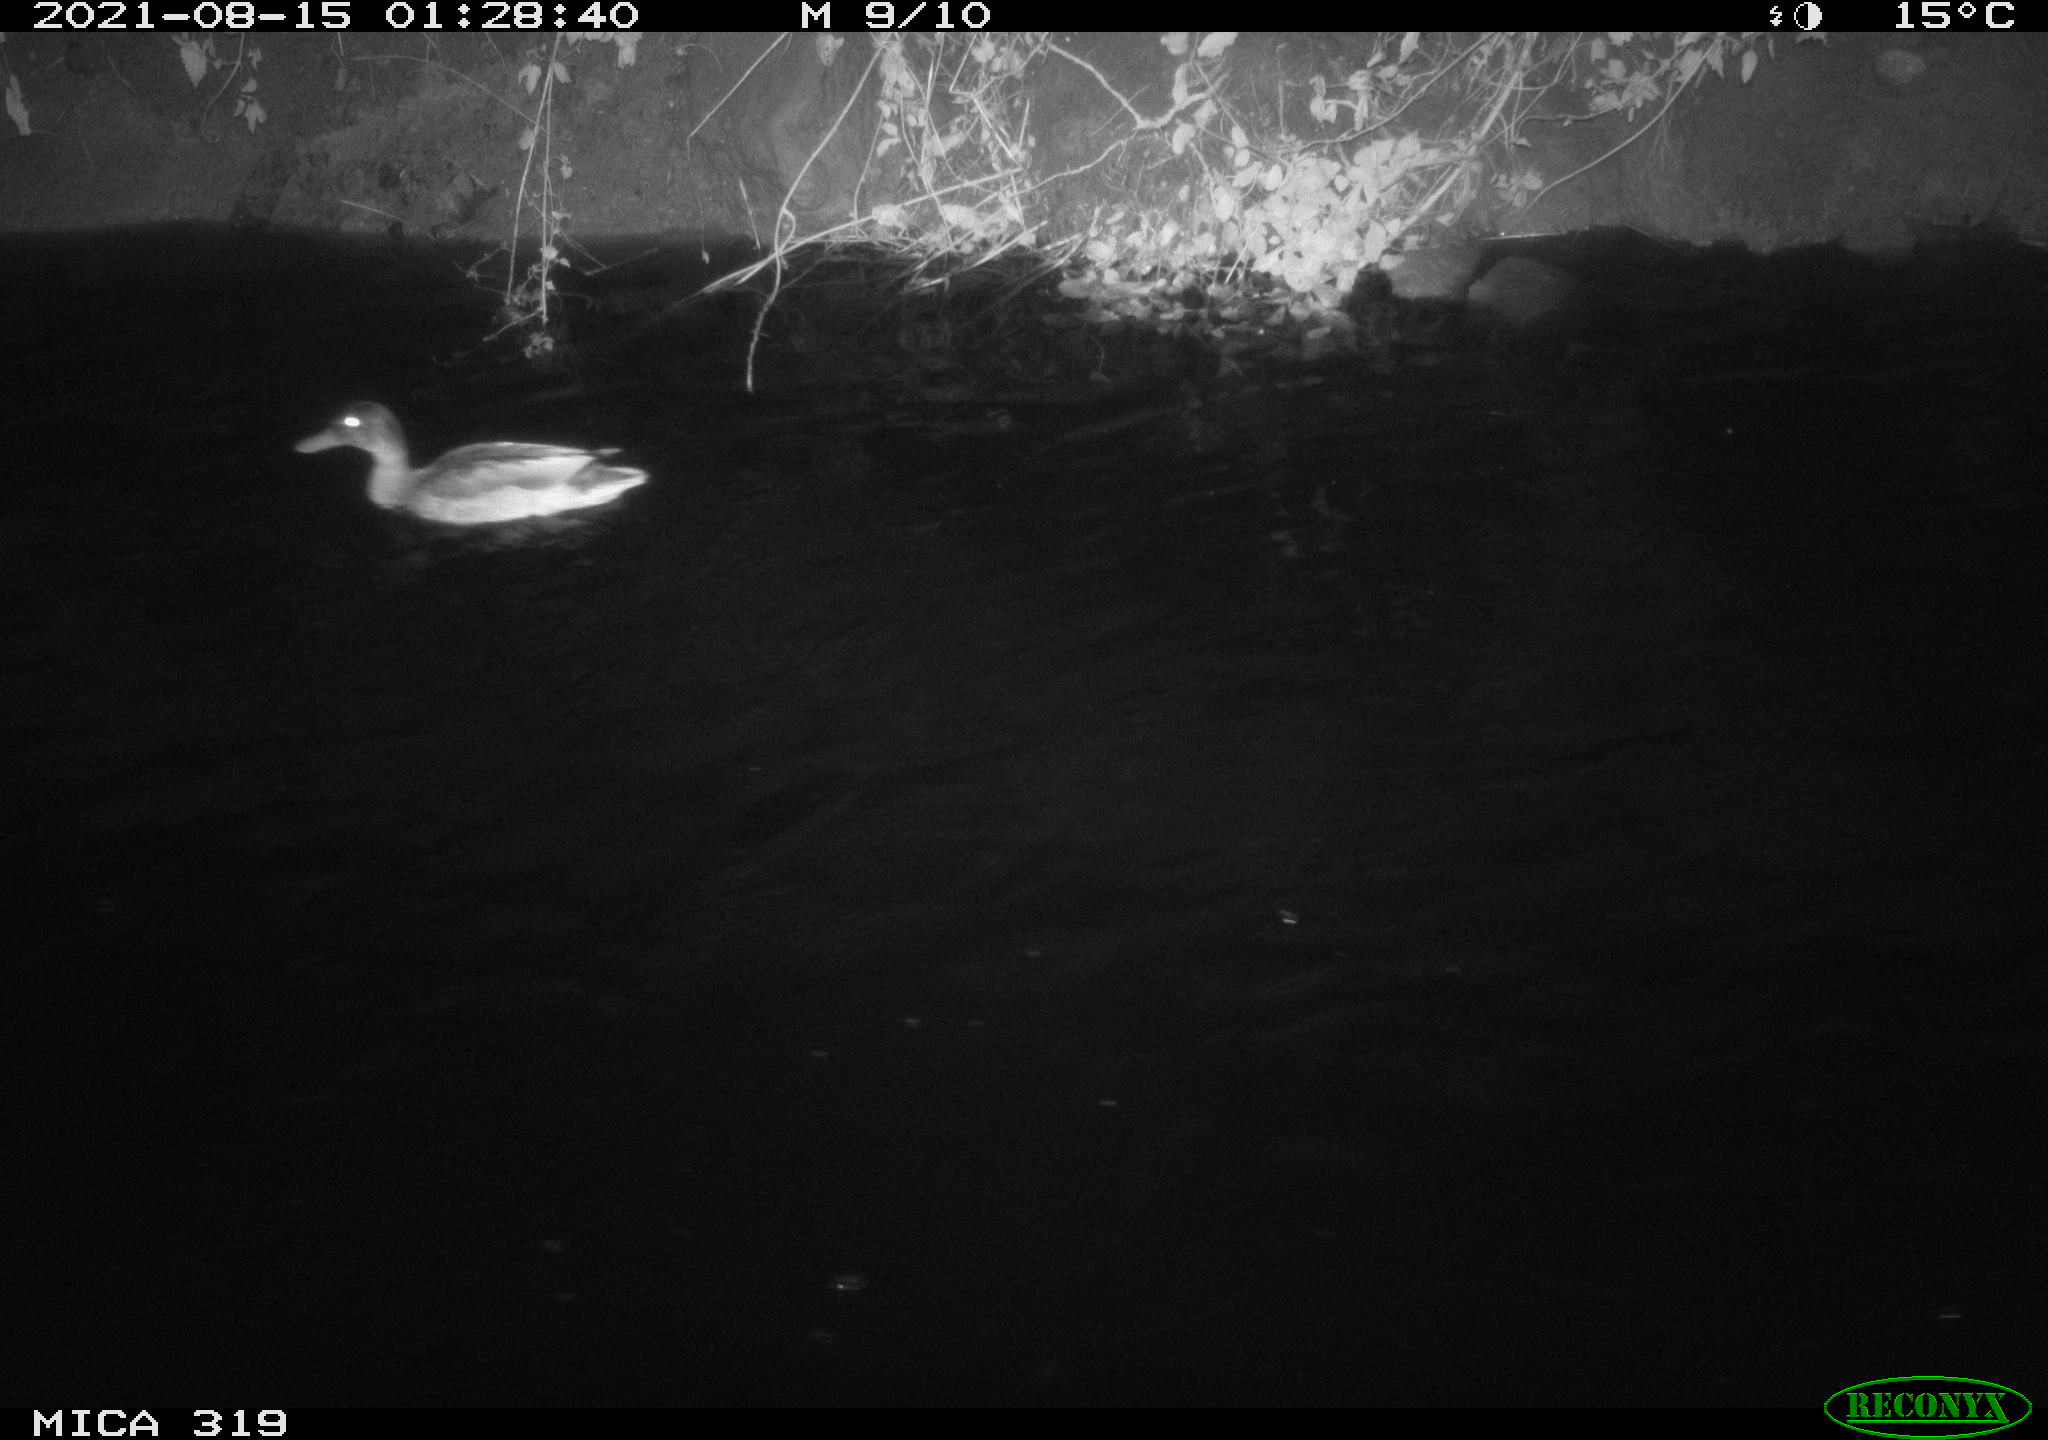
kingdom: Animalia
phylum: Chordata
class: Aves
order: Anseriformes
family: Anatidae
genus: Anas
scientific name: Anas platyrhynchos
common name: Mallard
